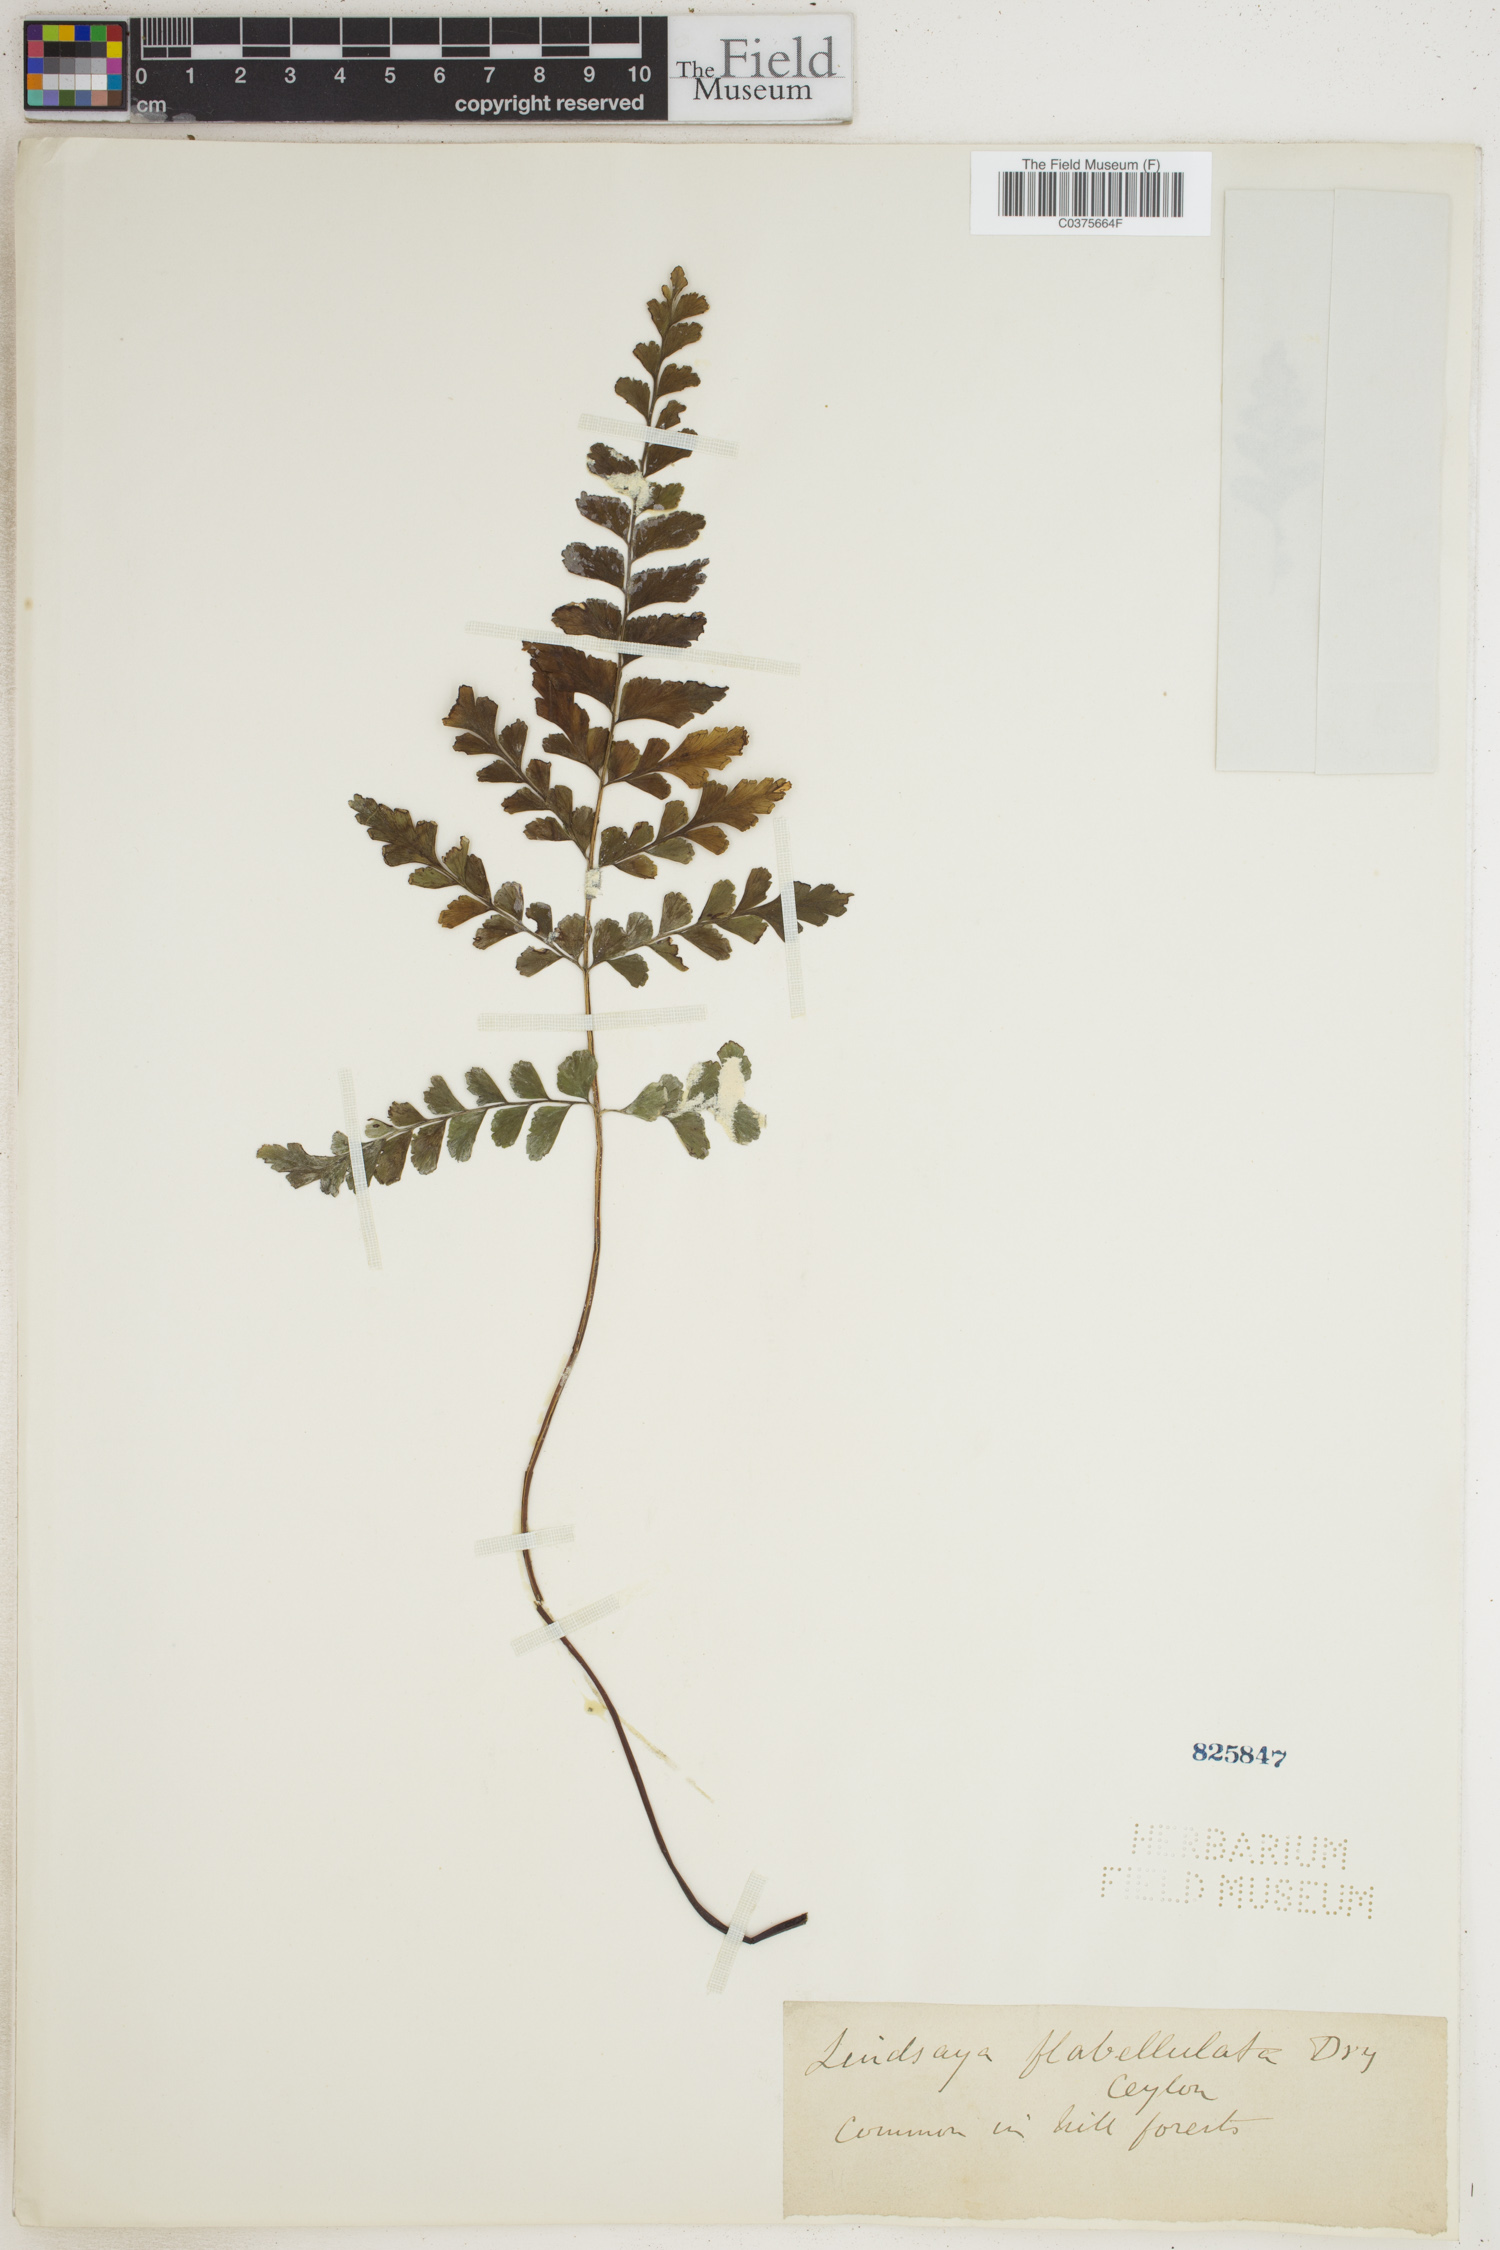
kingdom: Plantae
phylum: Tracheophyta
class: Polypodiopsida
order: Polypodiales
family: Lindsaeaceae
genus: Lindsaea
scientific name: Lindsaea orbiculata
